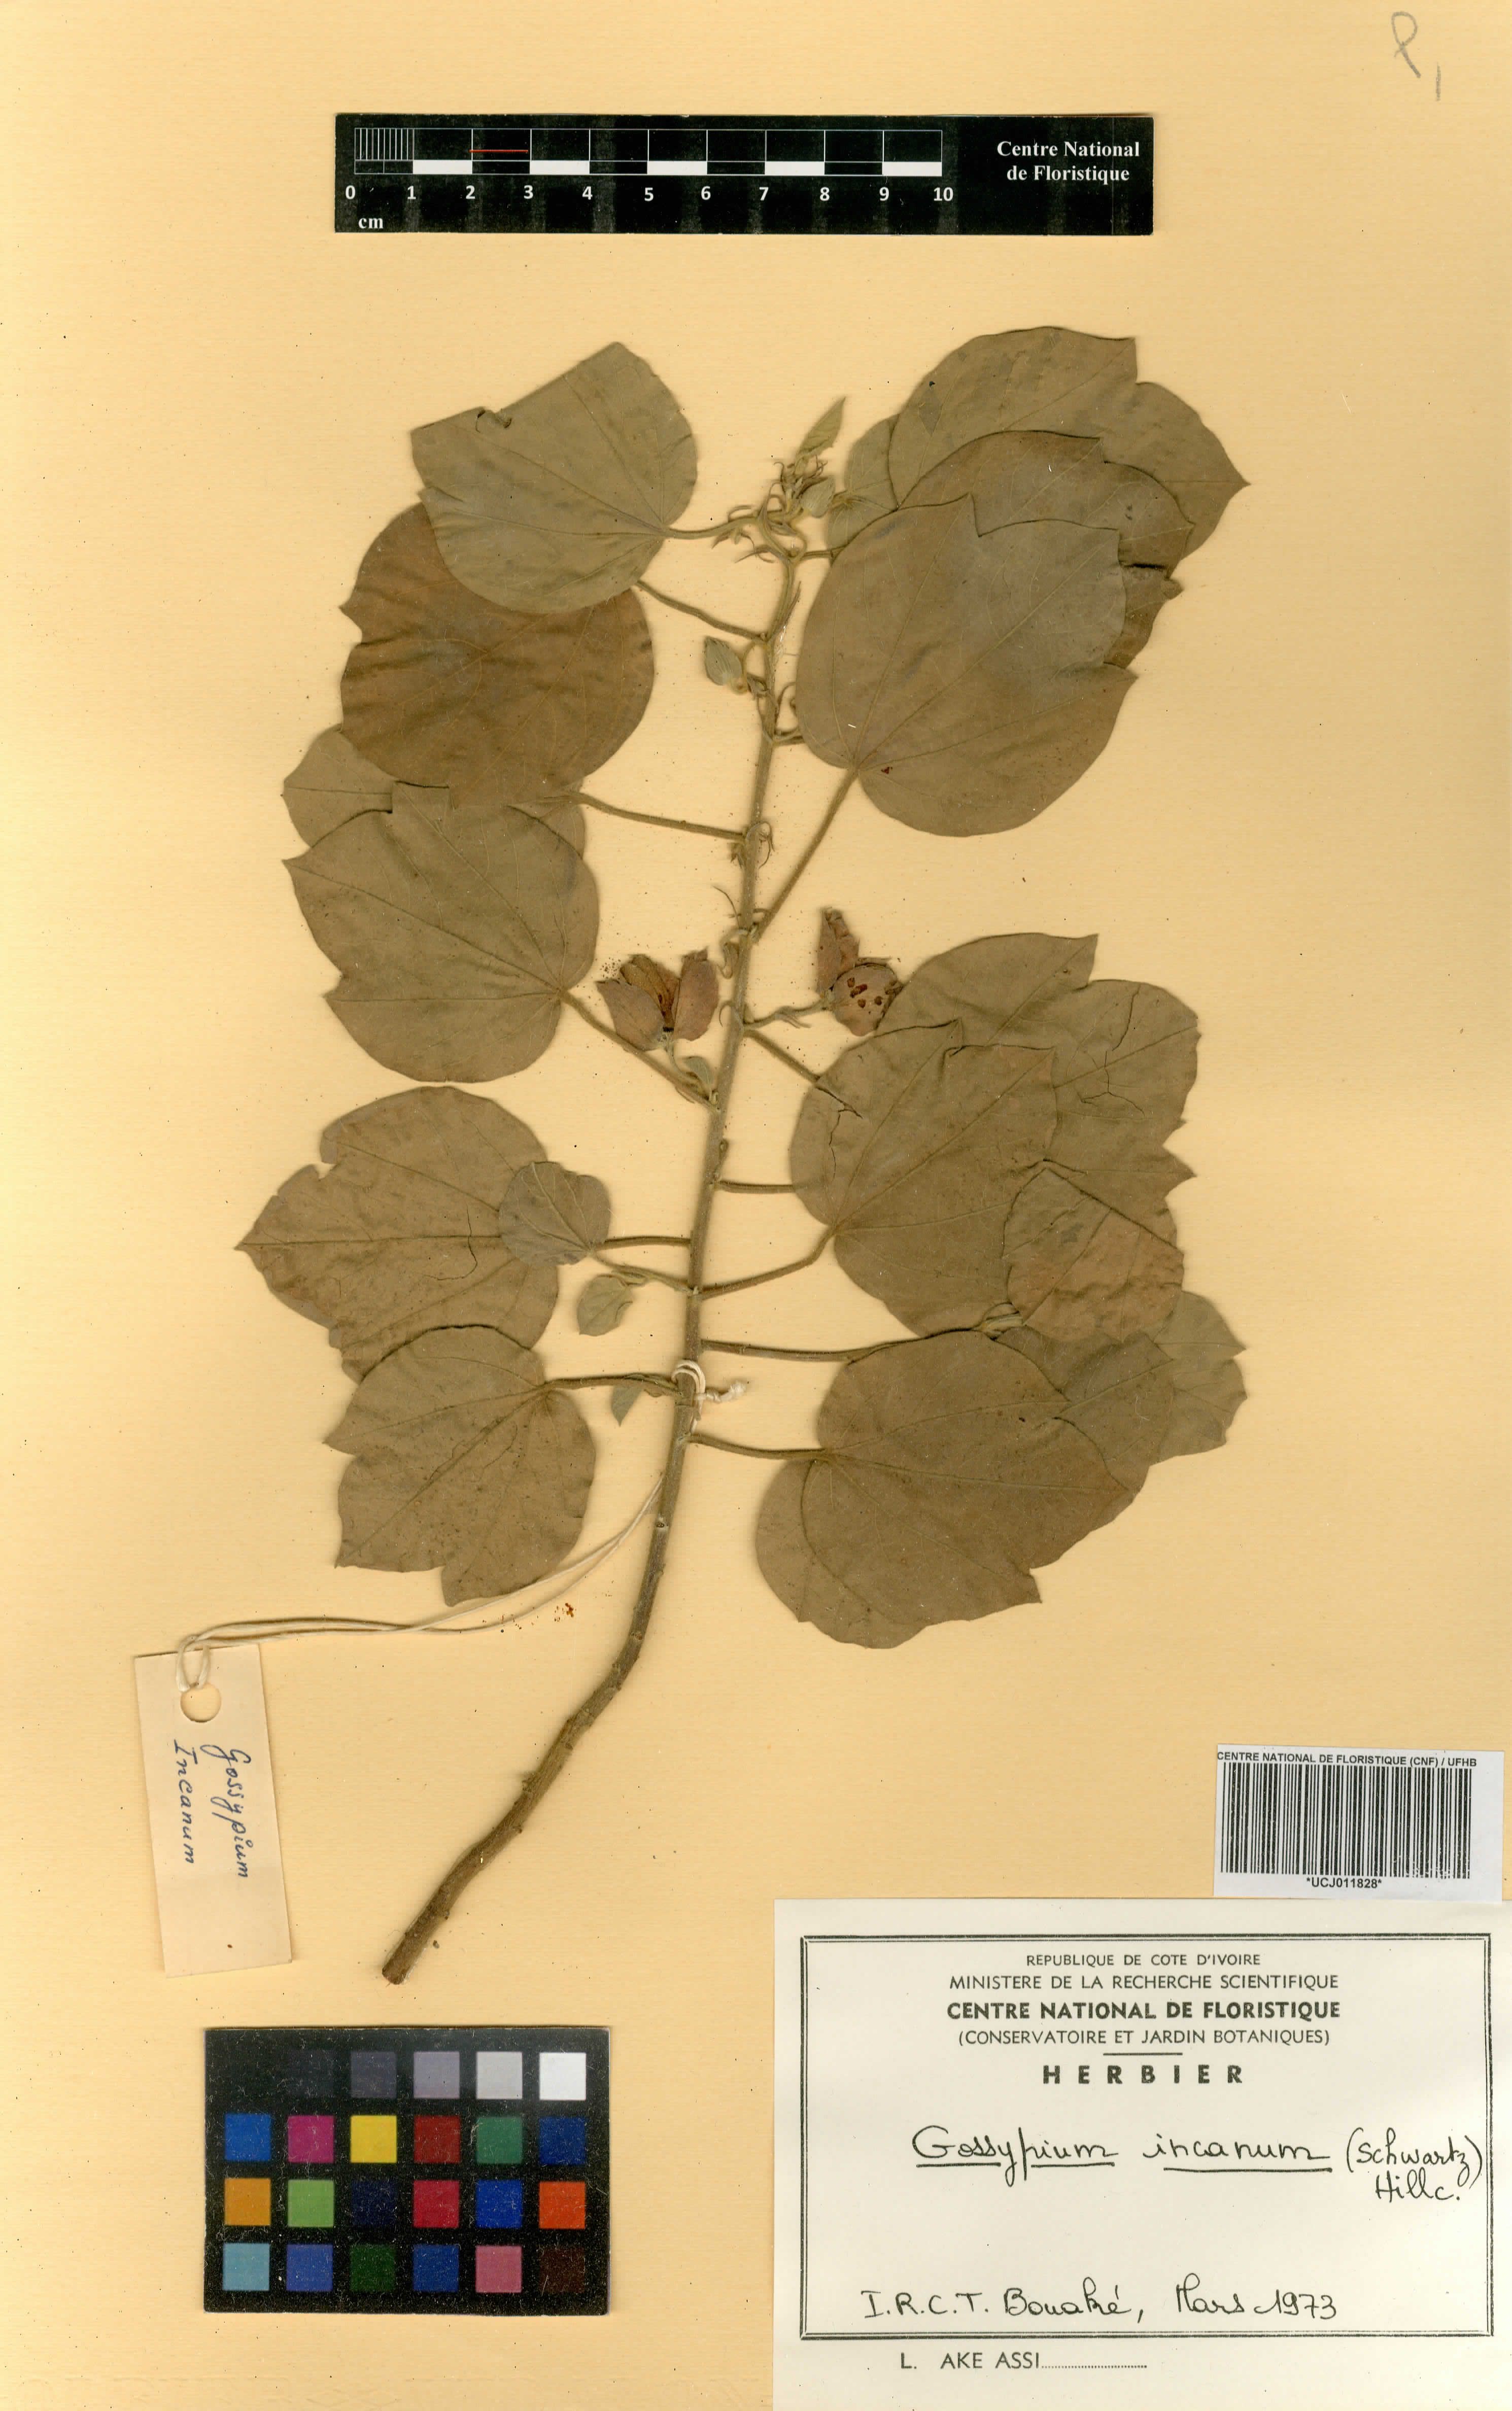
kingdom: Plantae
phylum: Tracheophyta
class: Magnoliopsida
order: Malvales
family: Malvaceae
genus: Gossypium
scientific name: Gossypium incanum
